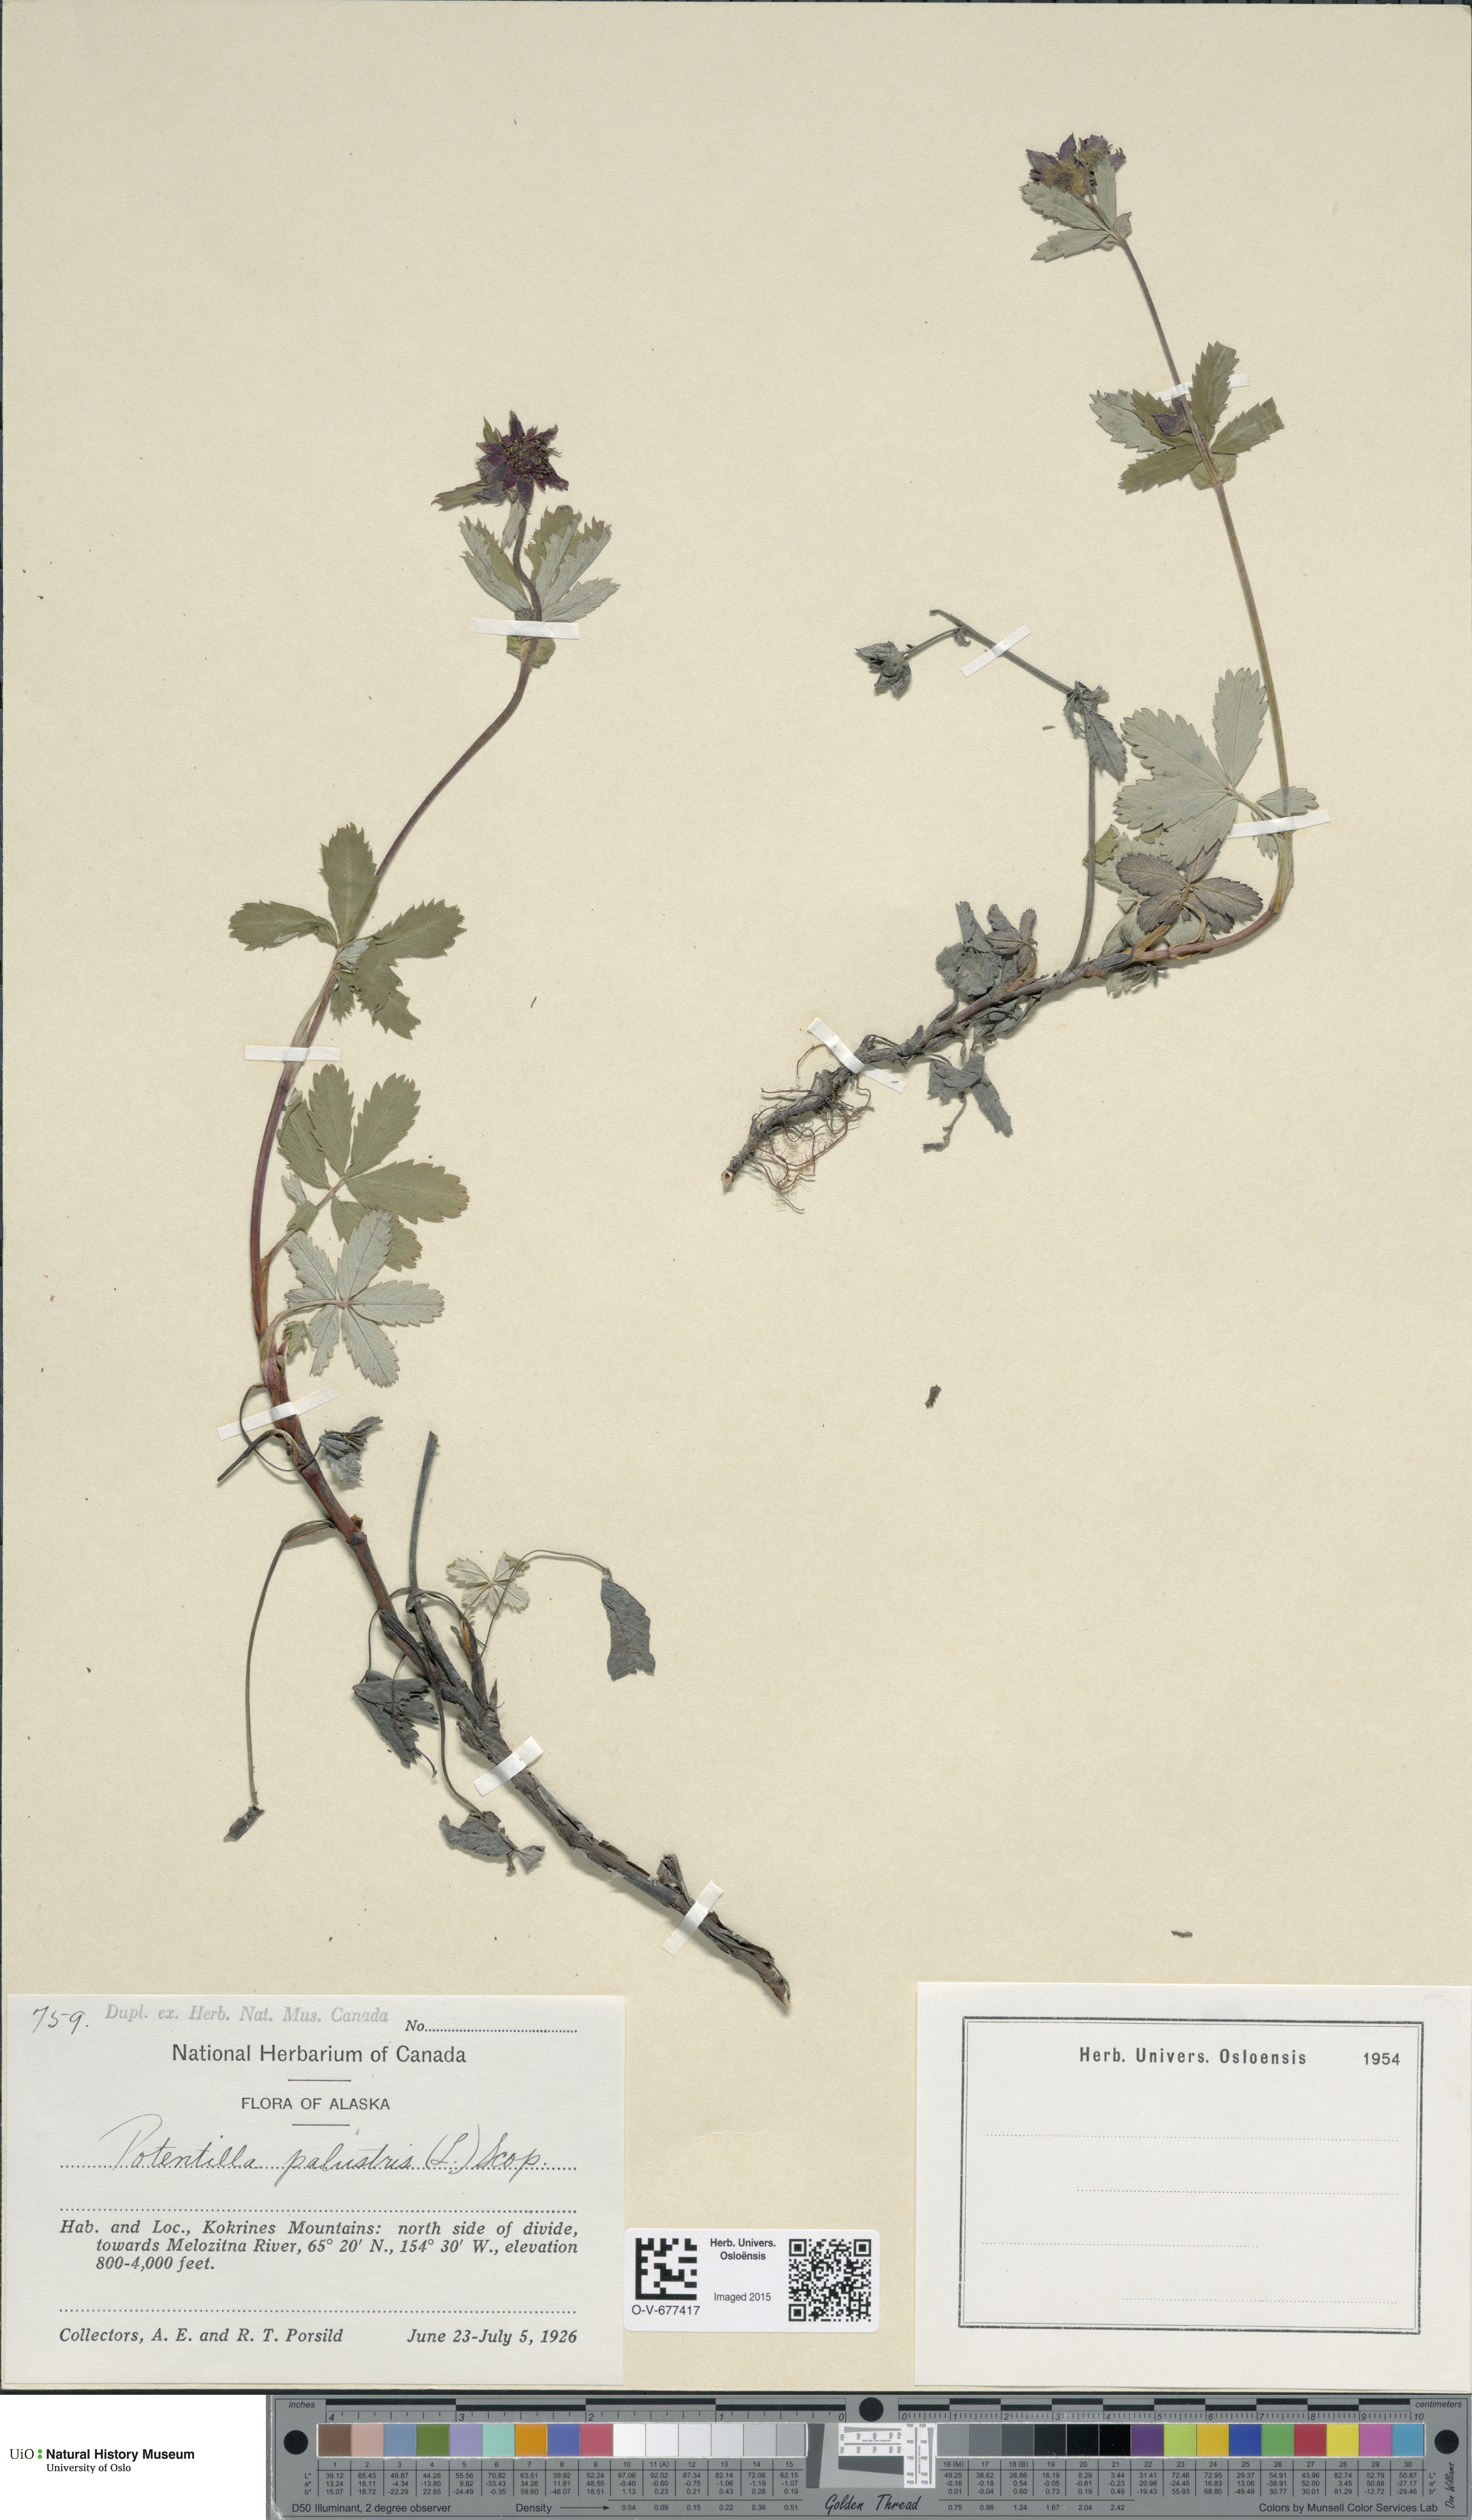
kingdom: Plantae
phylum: Tracheophyta
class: Magnoliopsida
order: Rosales
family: Rosaceae
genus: Comarum
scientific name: Comarum palustre
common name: Marsh cinquefoil
